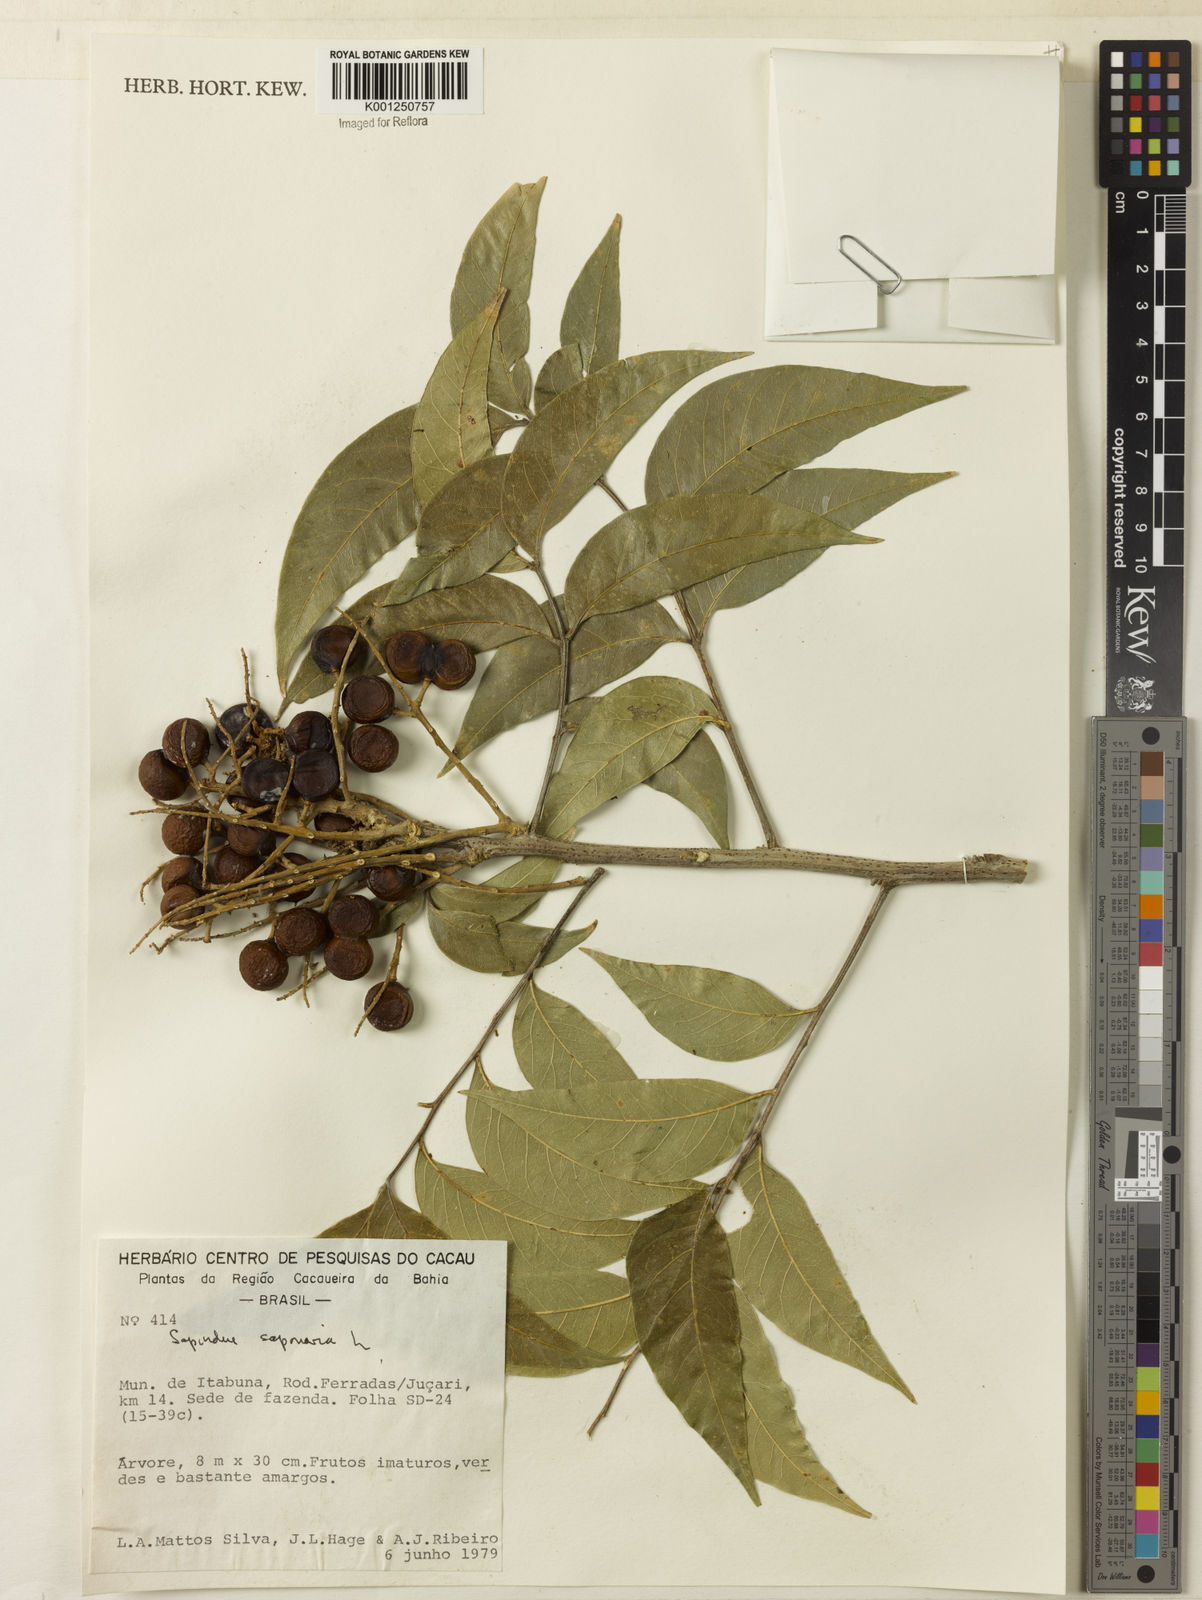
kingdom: Plantae
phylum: Tracheophyta
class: Magnoliopsida
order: Sapindales
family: Sapindaceae
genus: Sapindus
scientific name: Sapindus
